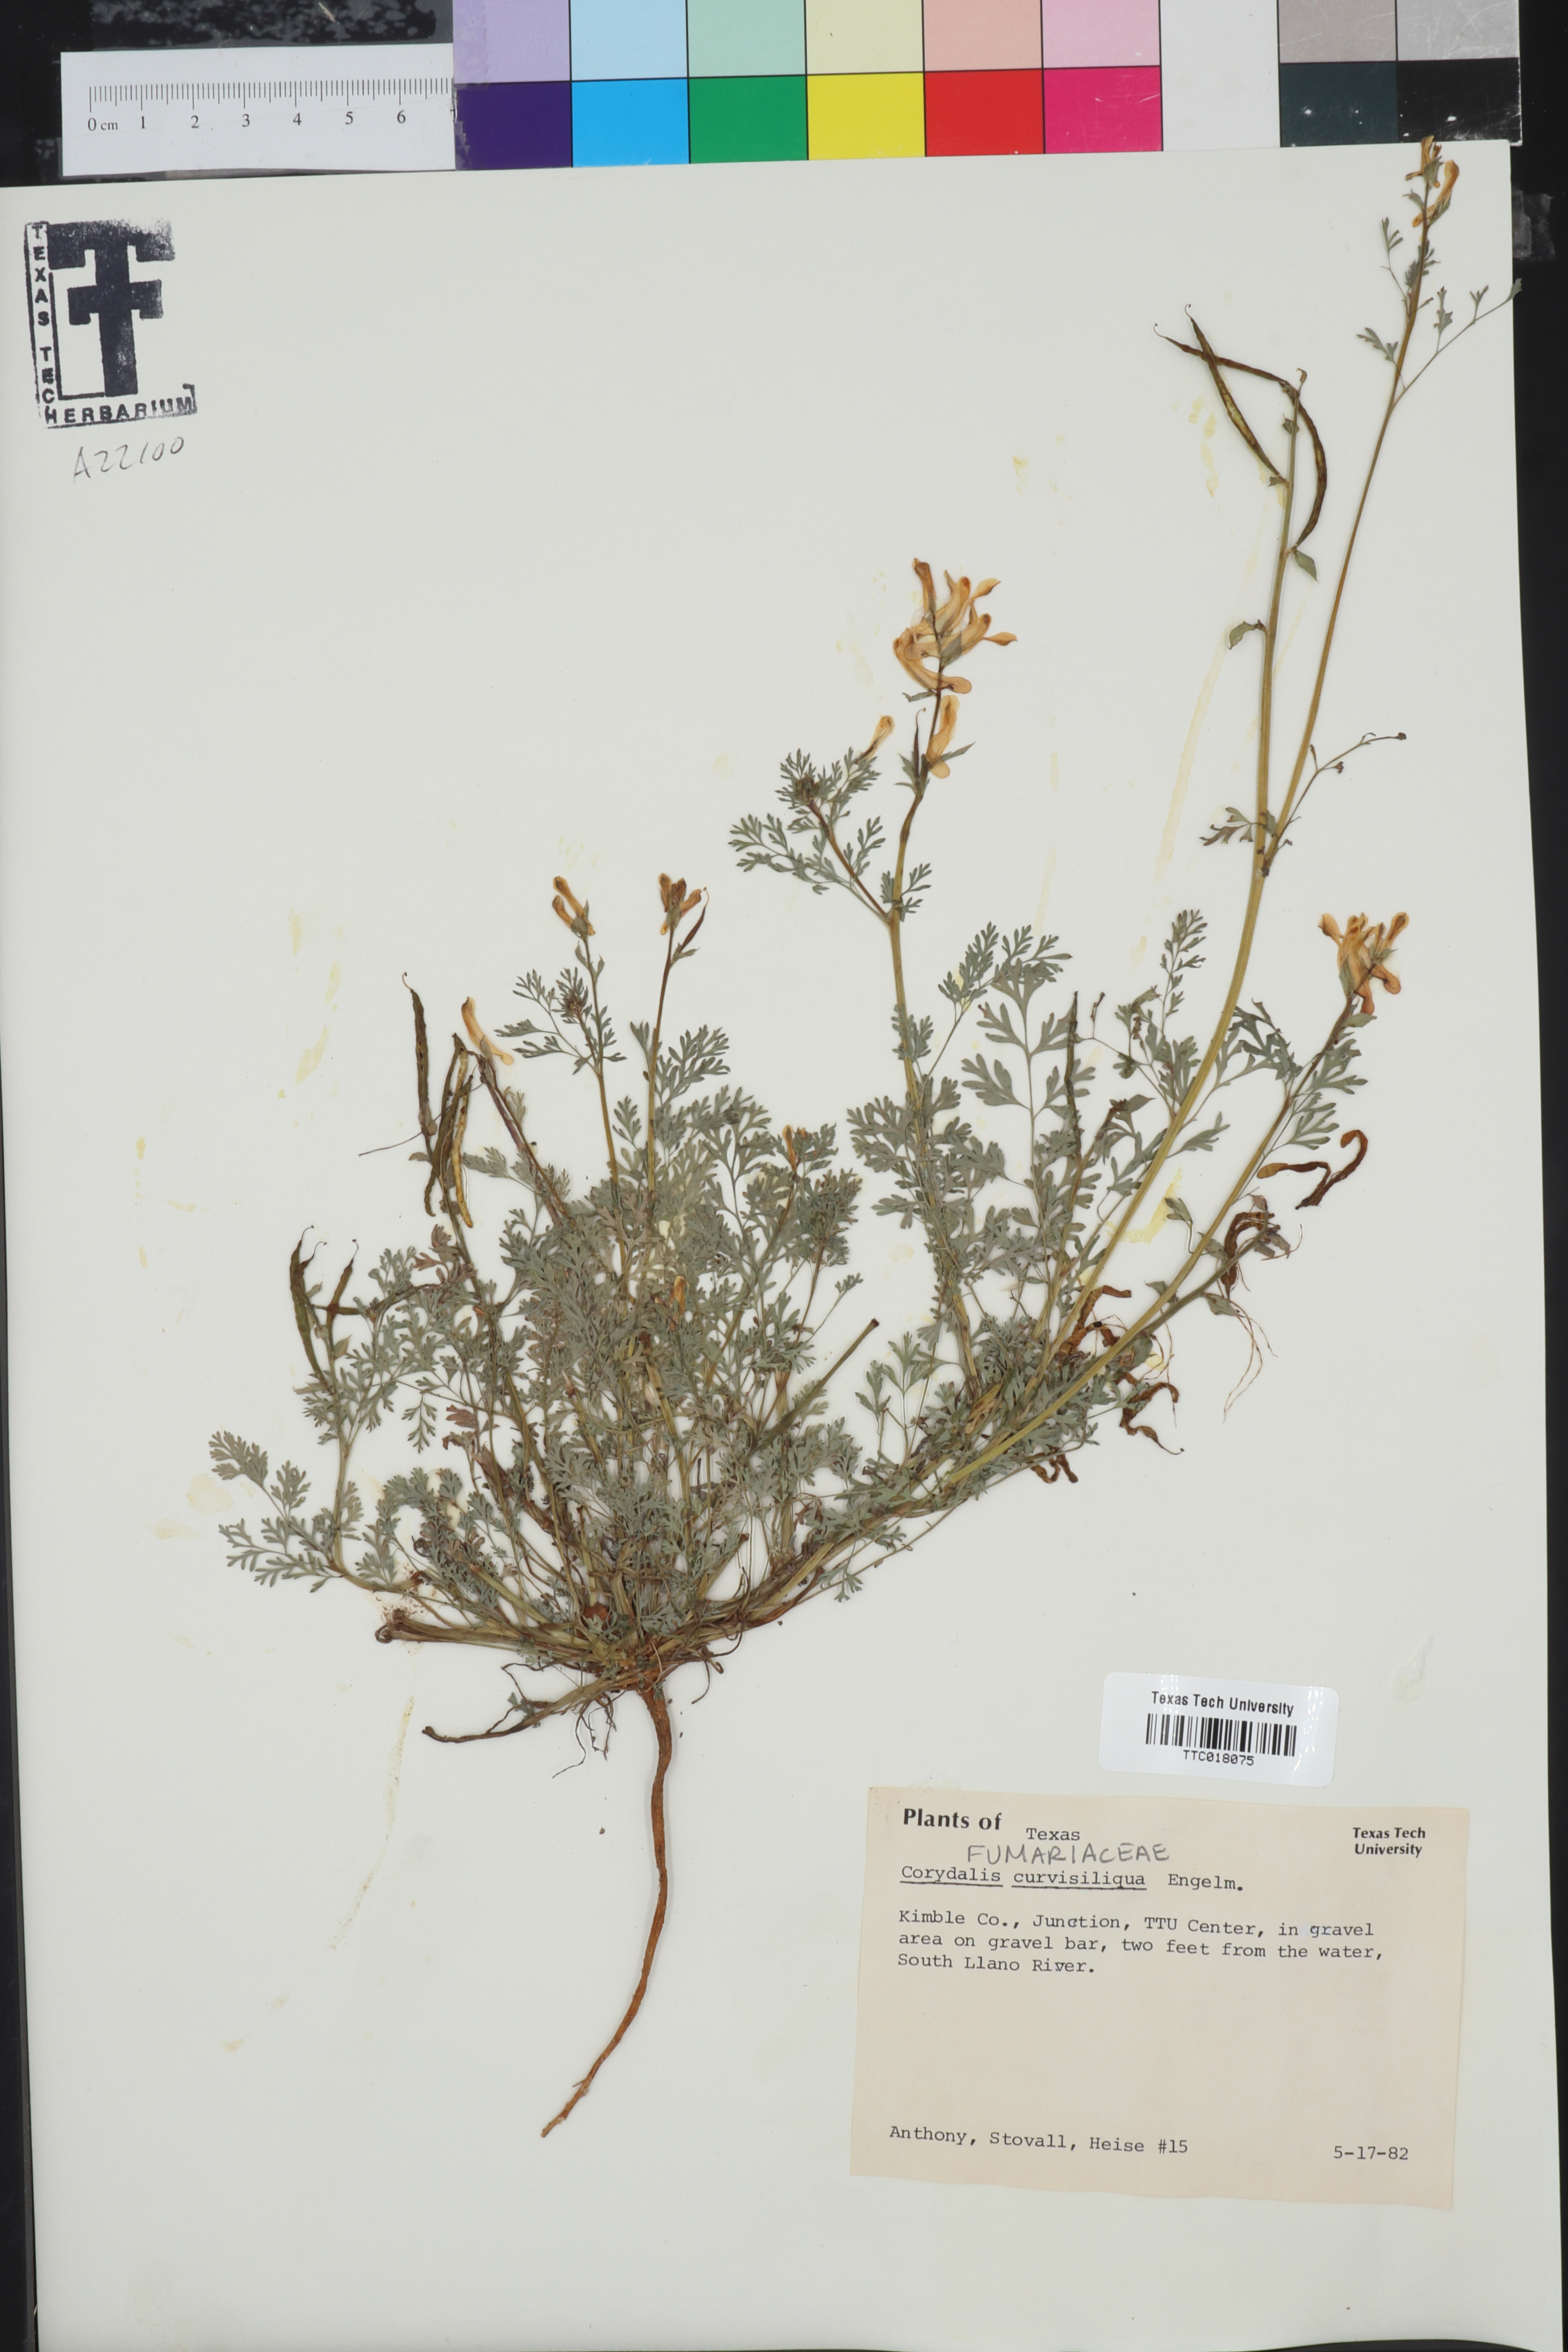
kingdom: Plantae
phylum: Tracheophyta
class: Magnoliopsida
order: Ranunculales
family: Papaveraceae
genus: Corydalis
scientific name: Corydalis curvisiliqua
